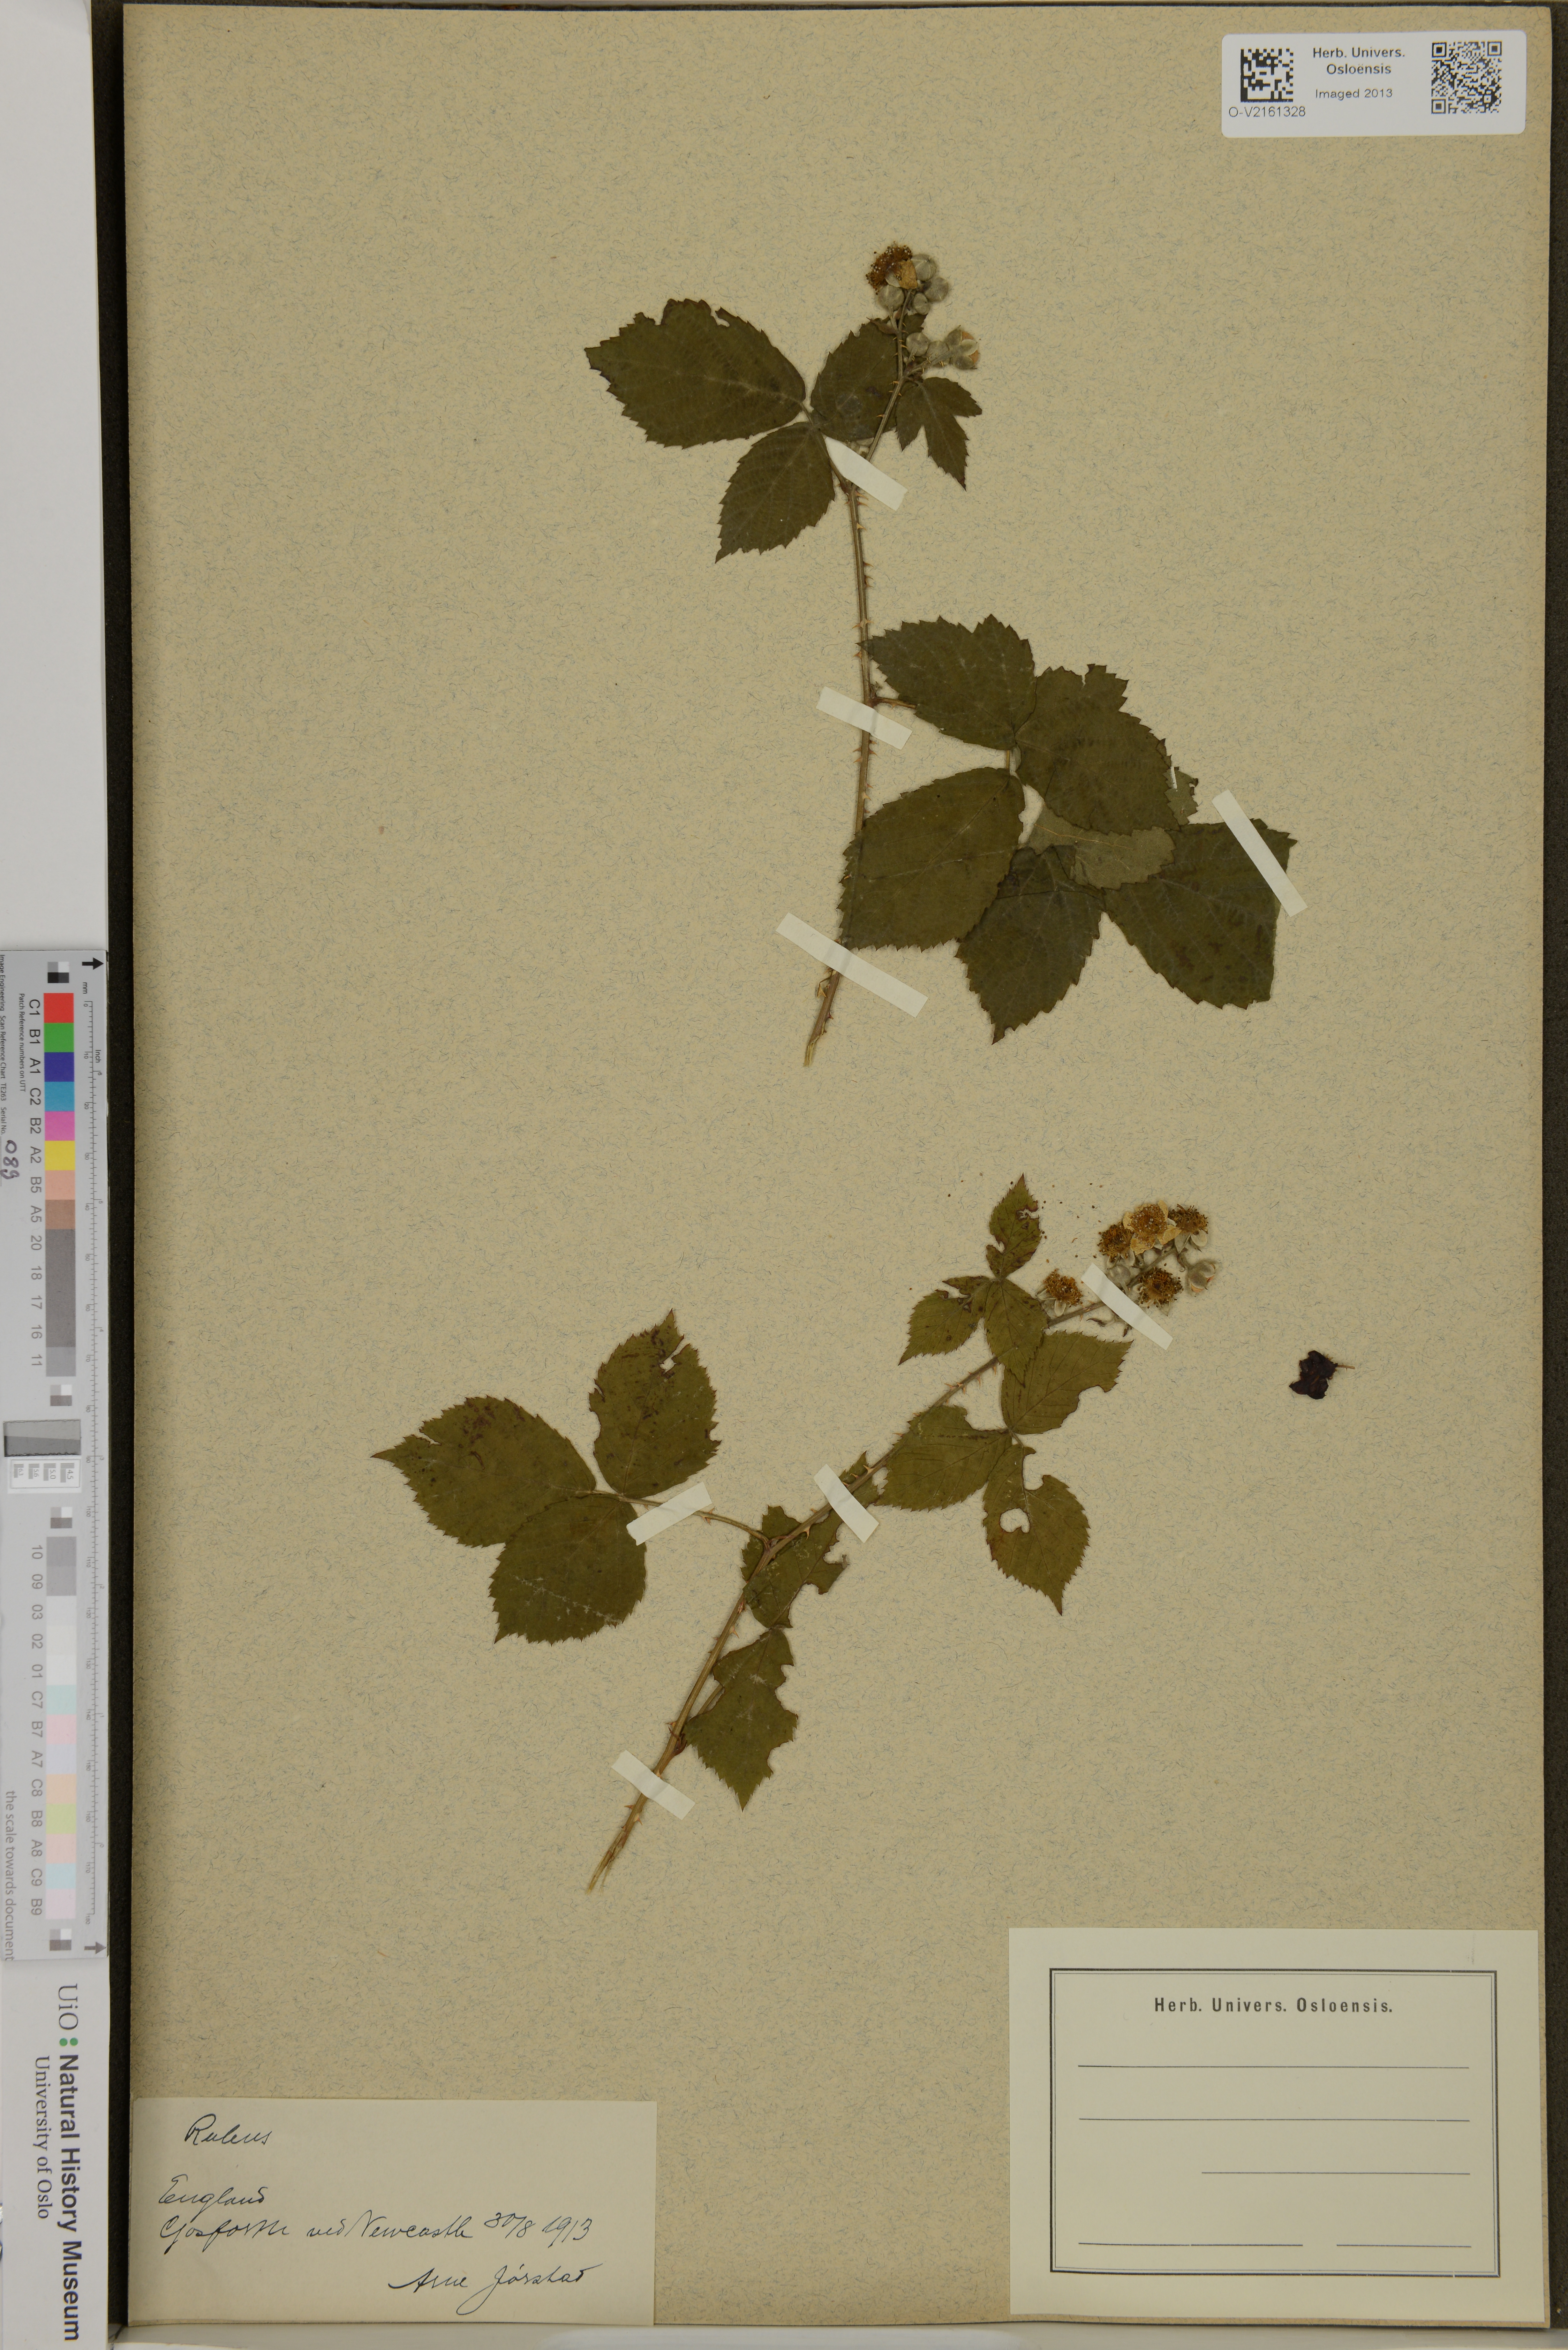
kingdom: Plantae
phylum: Tracheophyta
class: Magnoliopsida
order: Rosales
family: Rosaceae
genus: Rubus
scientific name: Rubus
